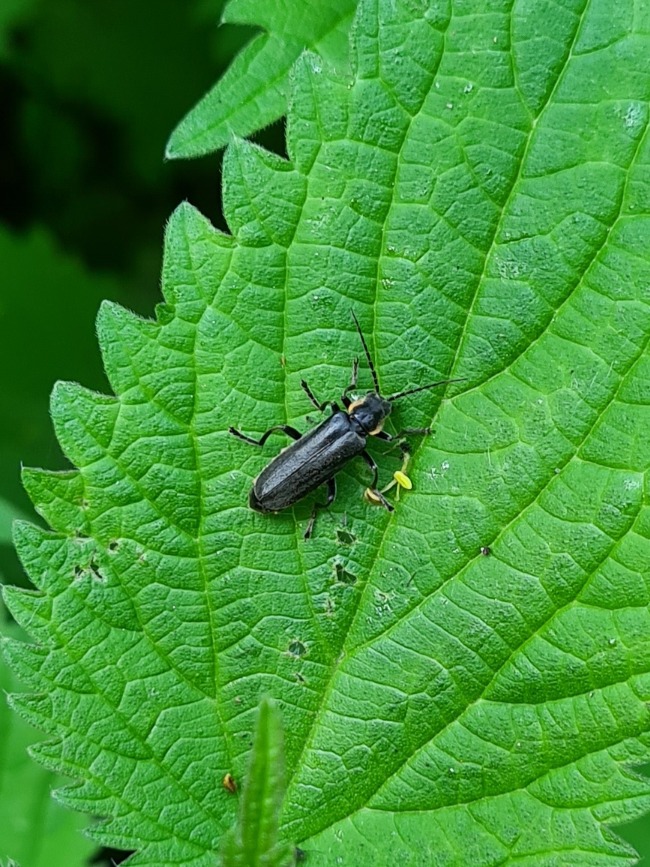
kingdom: Animalia
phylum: Arthropoda
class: Insecta
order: Coleoptera
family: Cantharidae
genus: Cantharis
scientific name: Cantharis obscura
